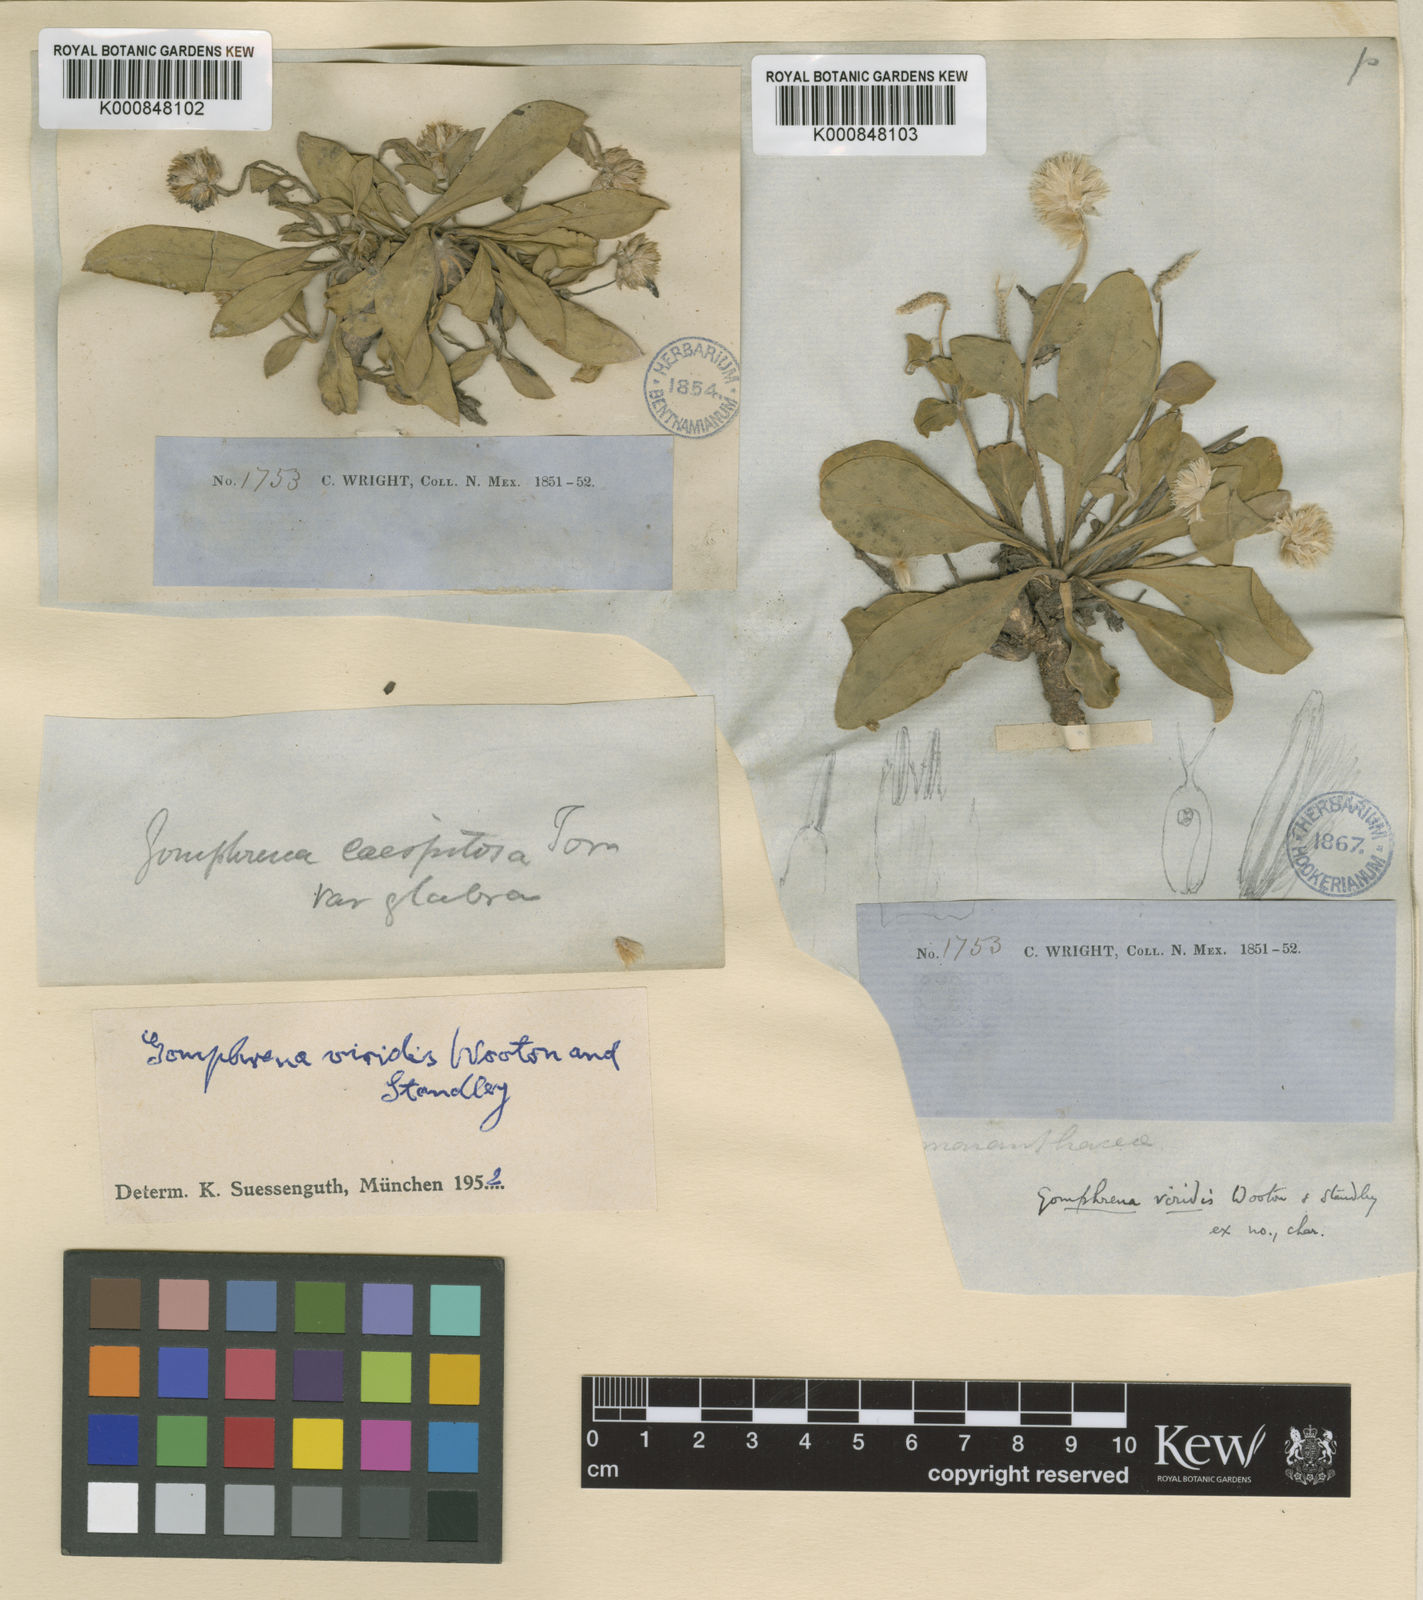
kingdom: Plantae
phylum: Tracheophyta
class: Magnoliopsida
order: Caryophyllales
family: Amaranthaceae
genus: Gomphrena
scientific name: Gomphrena caespitosa
